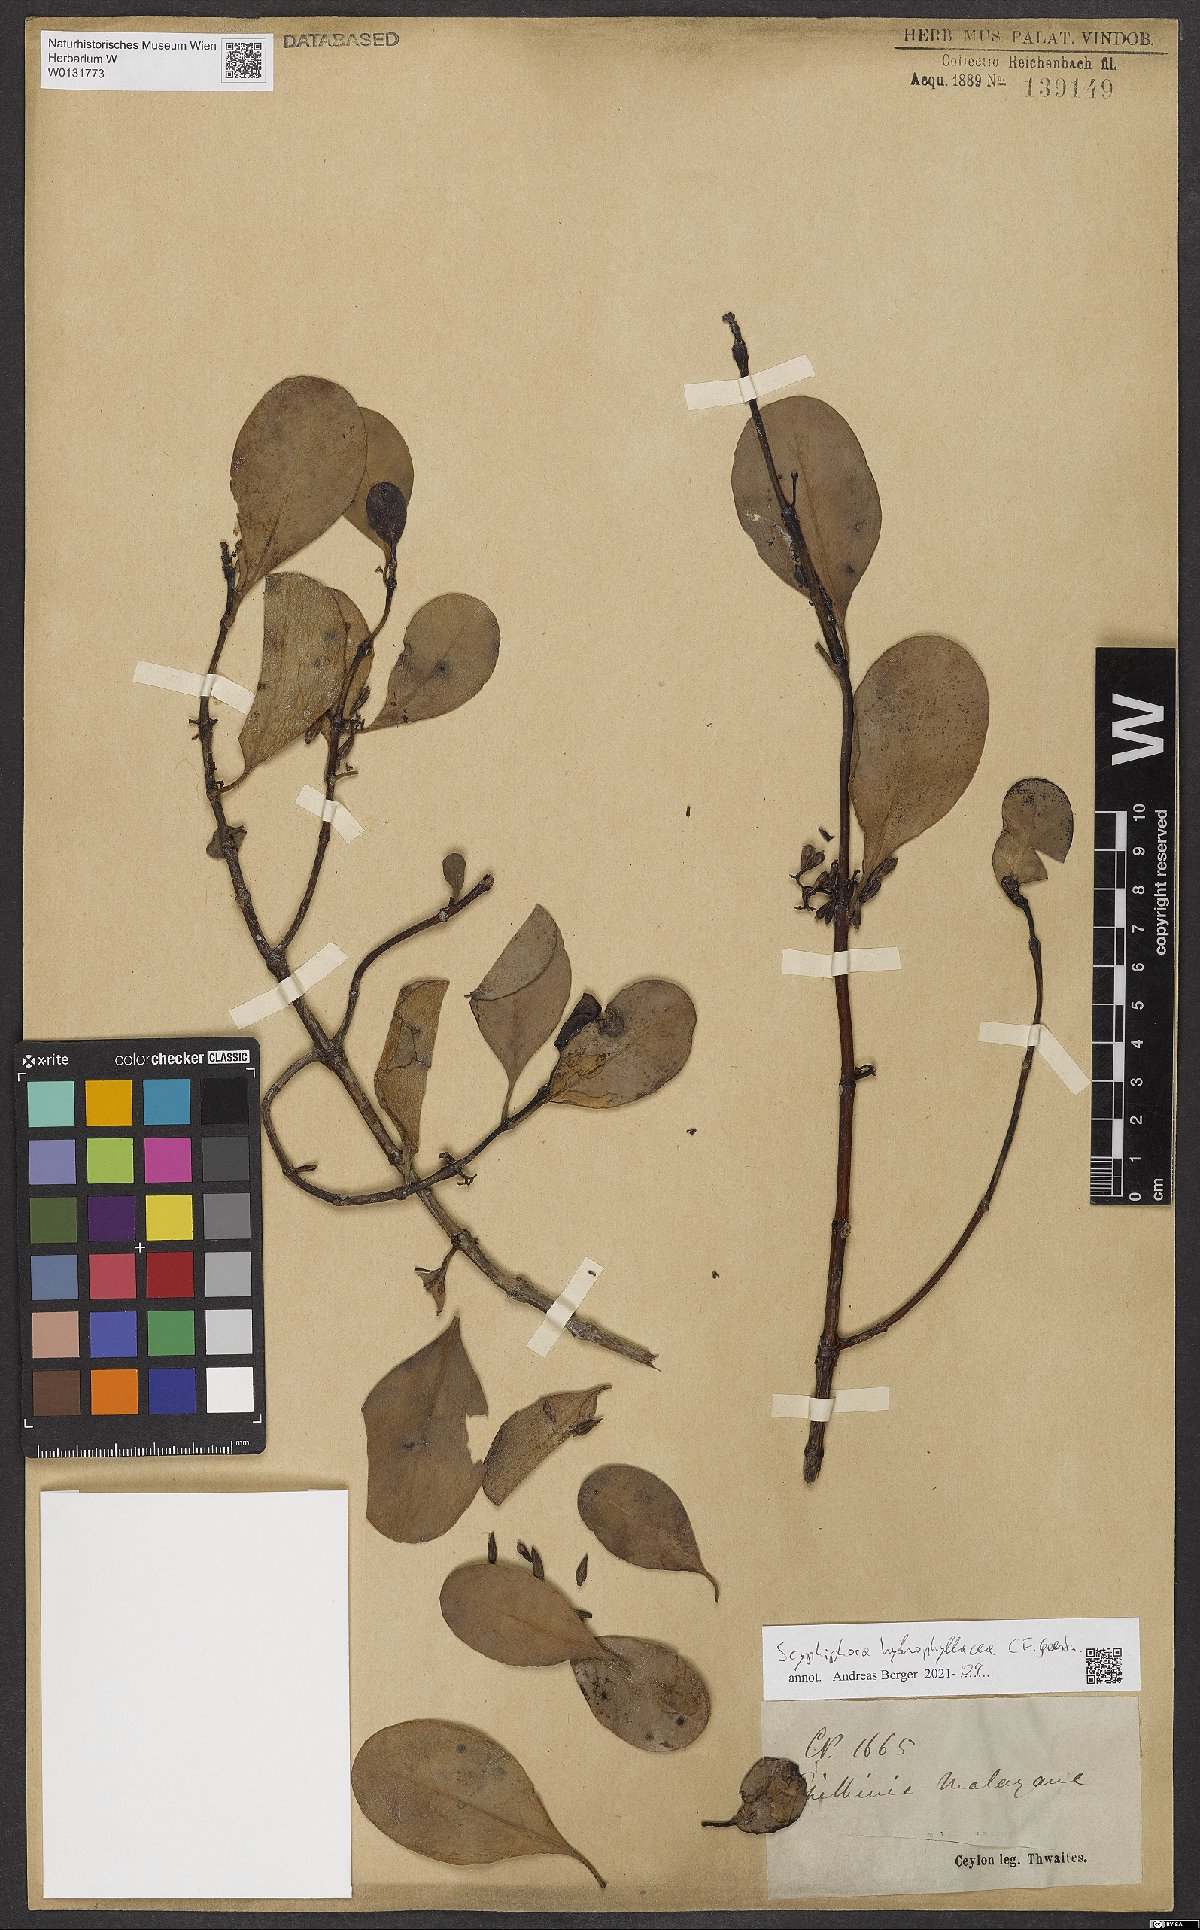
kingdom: Plantae
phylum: Tracheophyta
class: Magnoliopsida
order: Gentianales
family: Rubiaceae
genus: Scyphiphora
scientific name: Scyphiphora hydrophylacea
